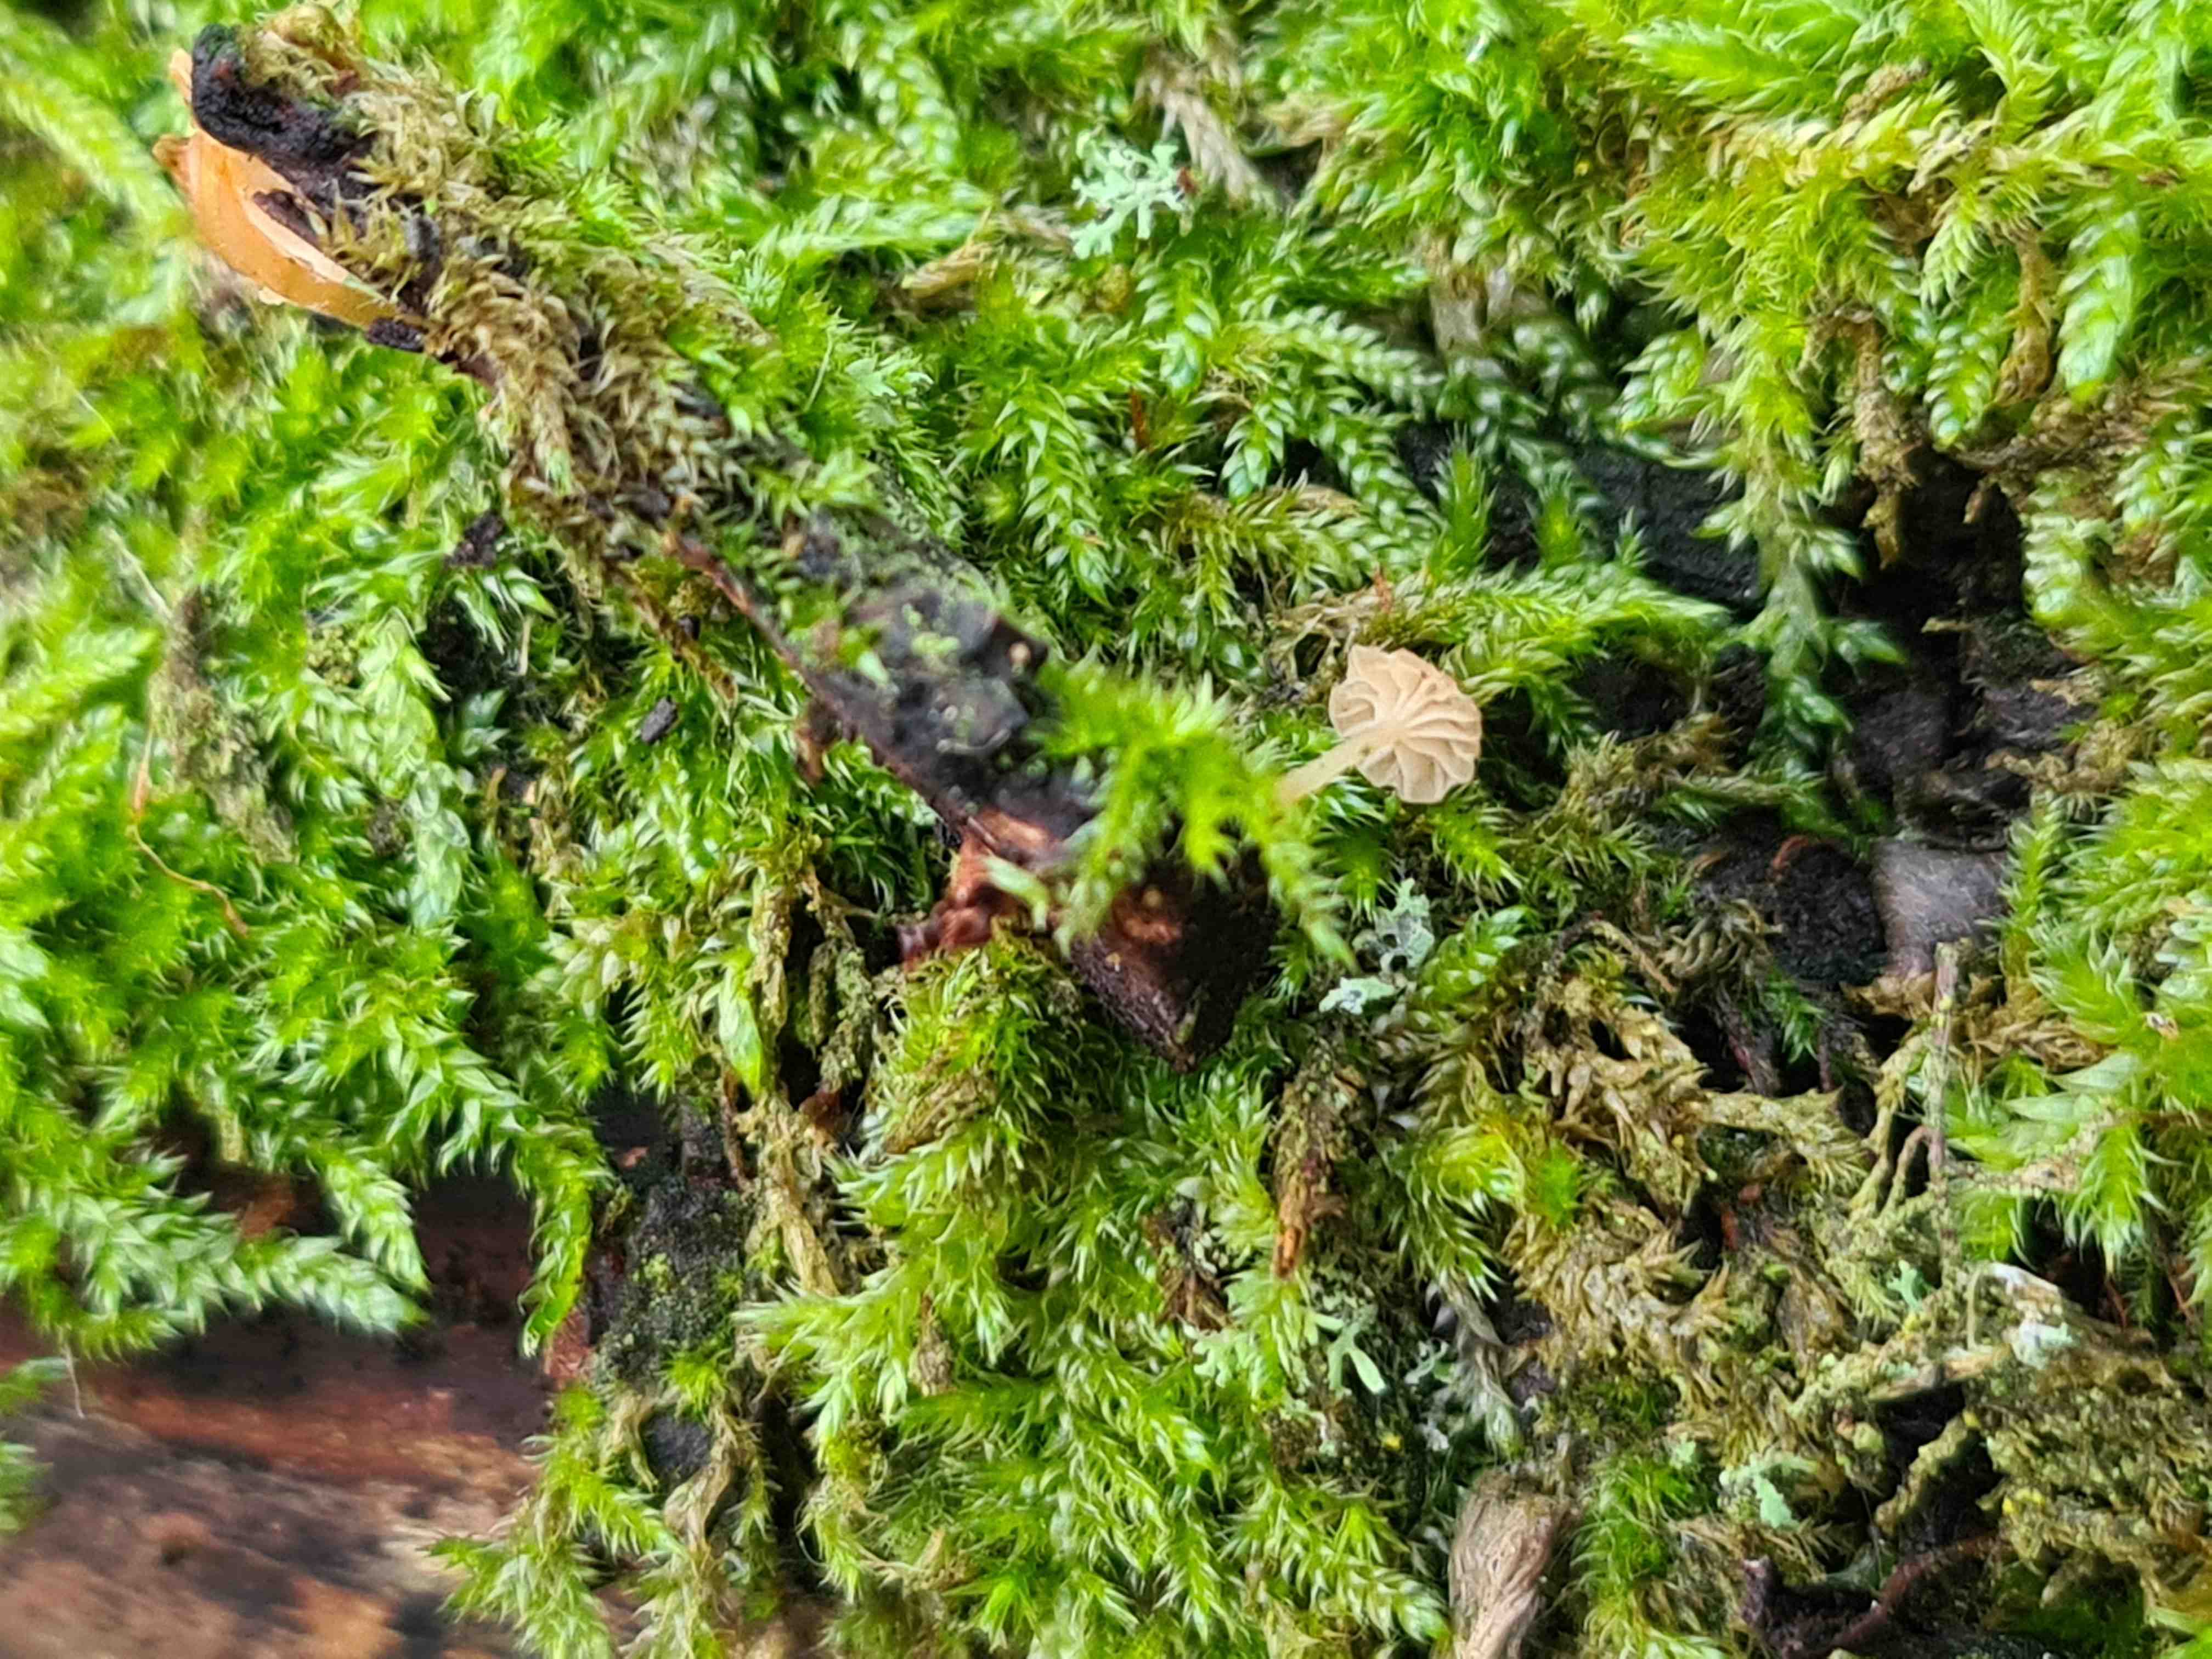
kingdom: Fungi
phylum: Basidiomycota
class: Agaricomycetes
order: Agaricales
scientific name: Agaricales
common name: champignonordenen
